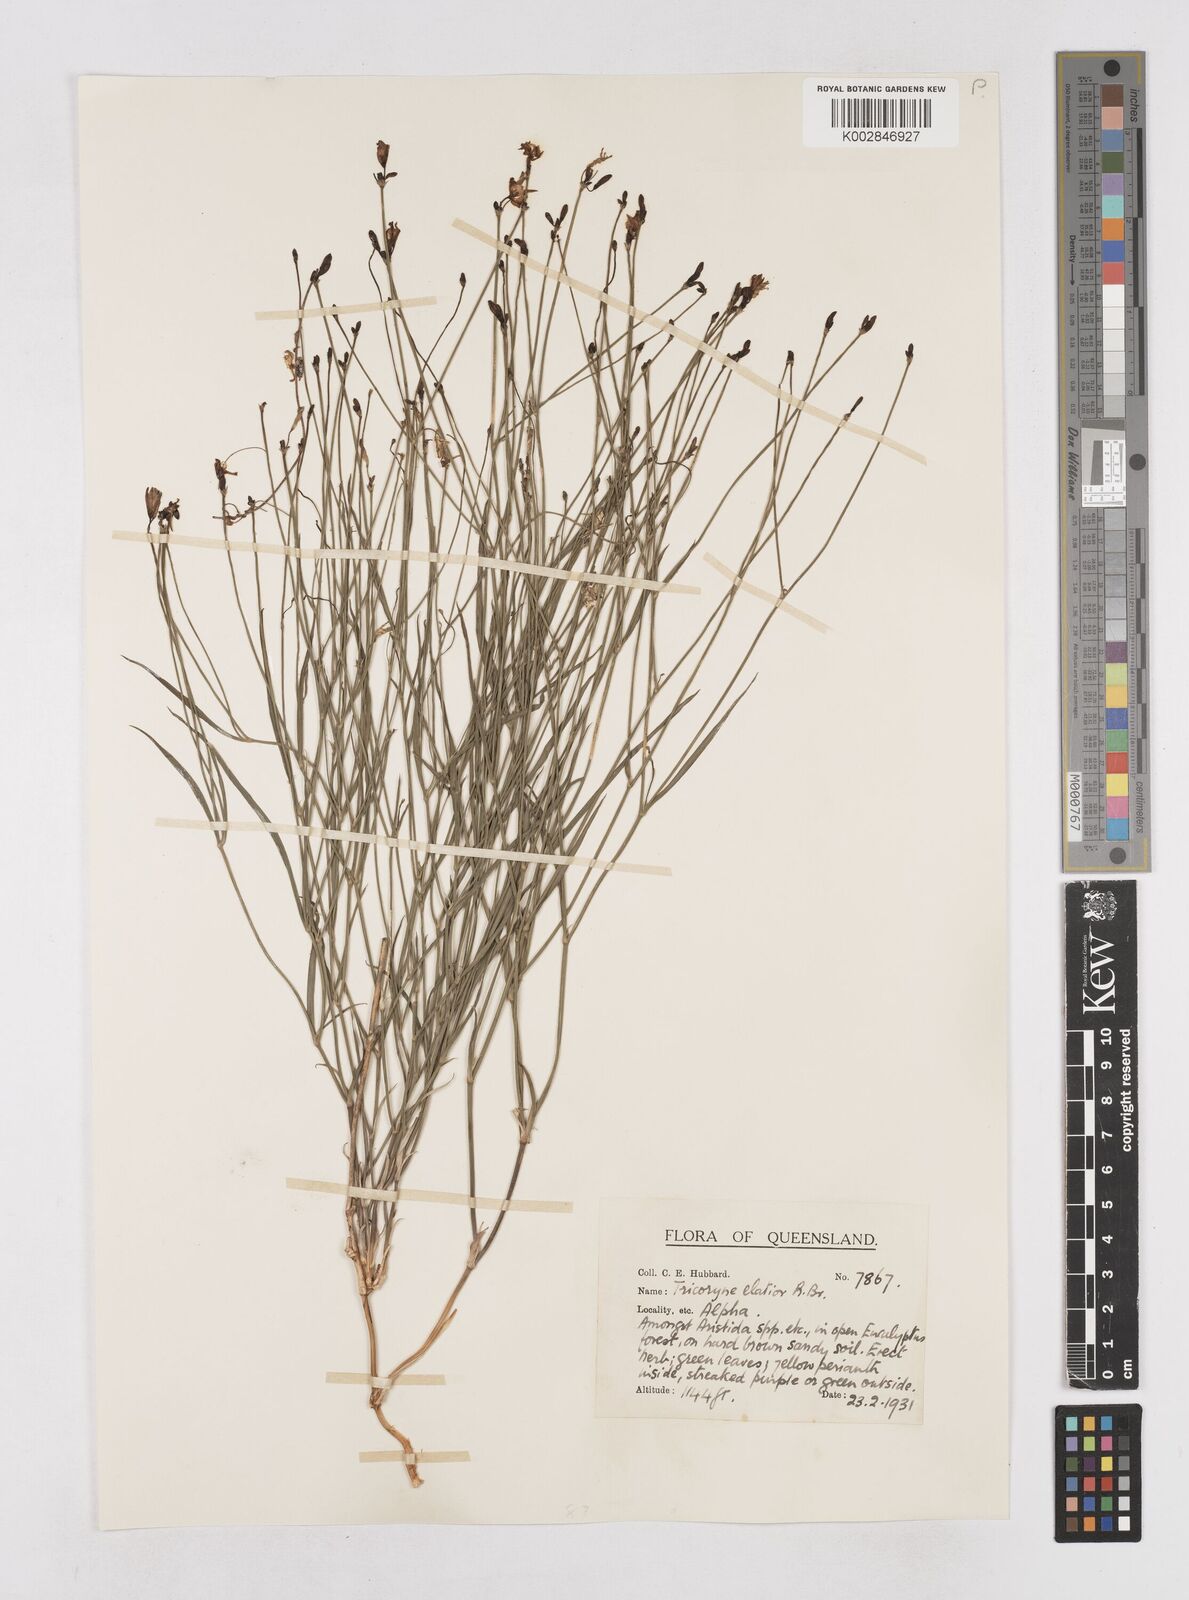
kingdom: Plantae
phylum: Tracheophyta
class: Liliopsida
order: Asparagales
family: Asphodelaceae
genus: Tricoryne
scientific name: Tricoryne elatior
